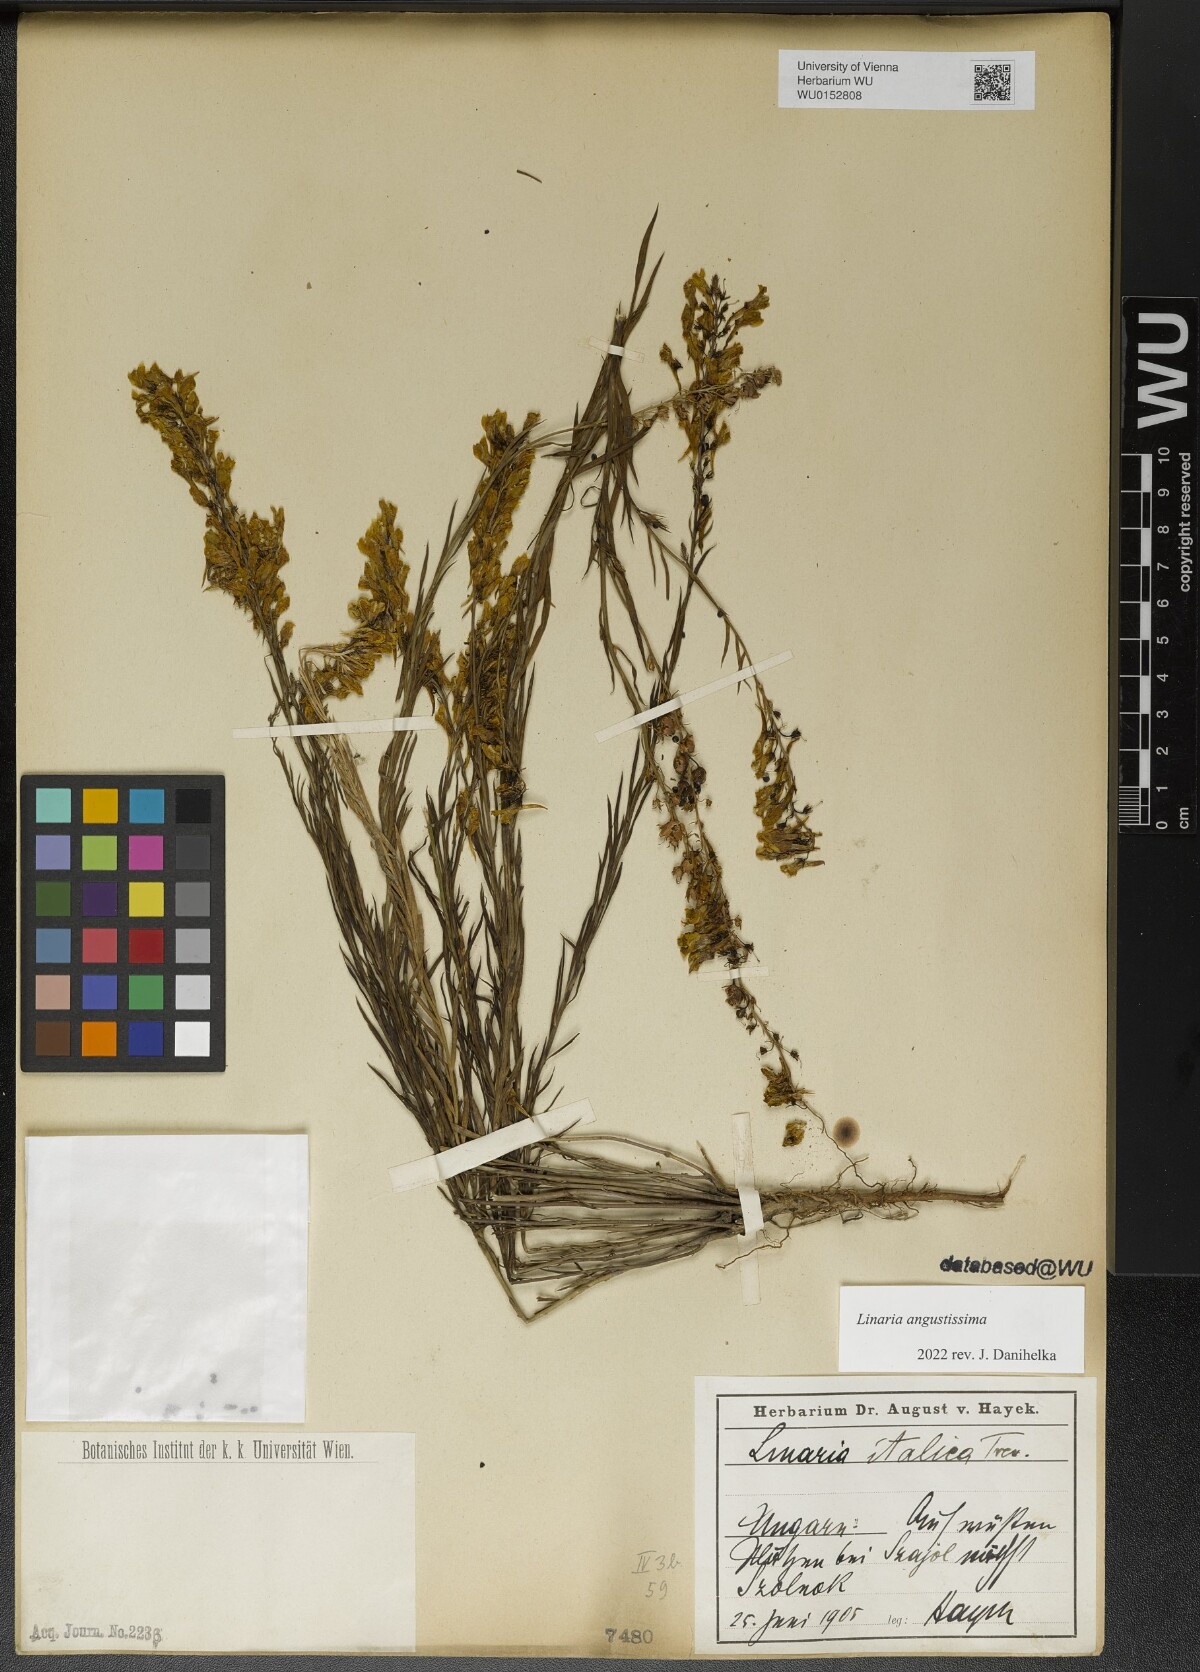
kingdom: Plantae
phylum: Tracheophyta
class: Magnoliopsida
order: Lamiales
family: Plantaginaceae
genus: Linaria
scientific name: Linaria angustissima
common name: Italian toadflax
